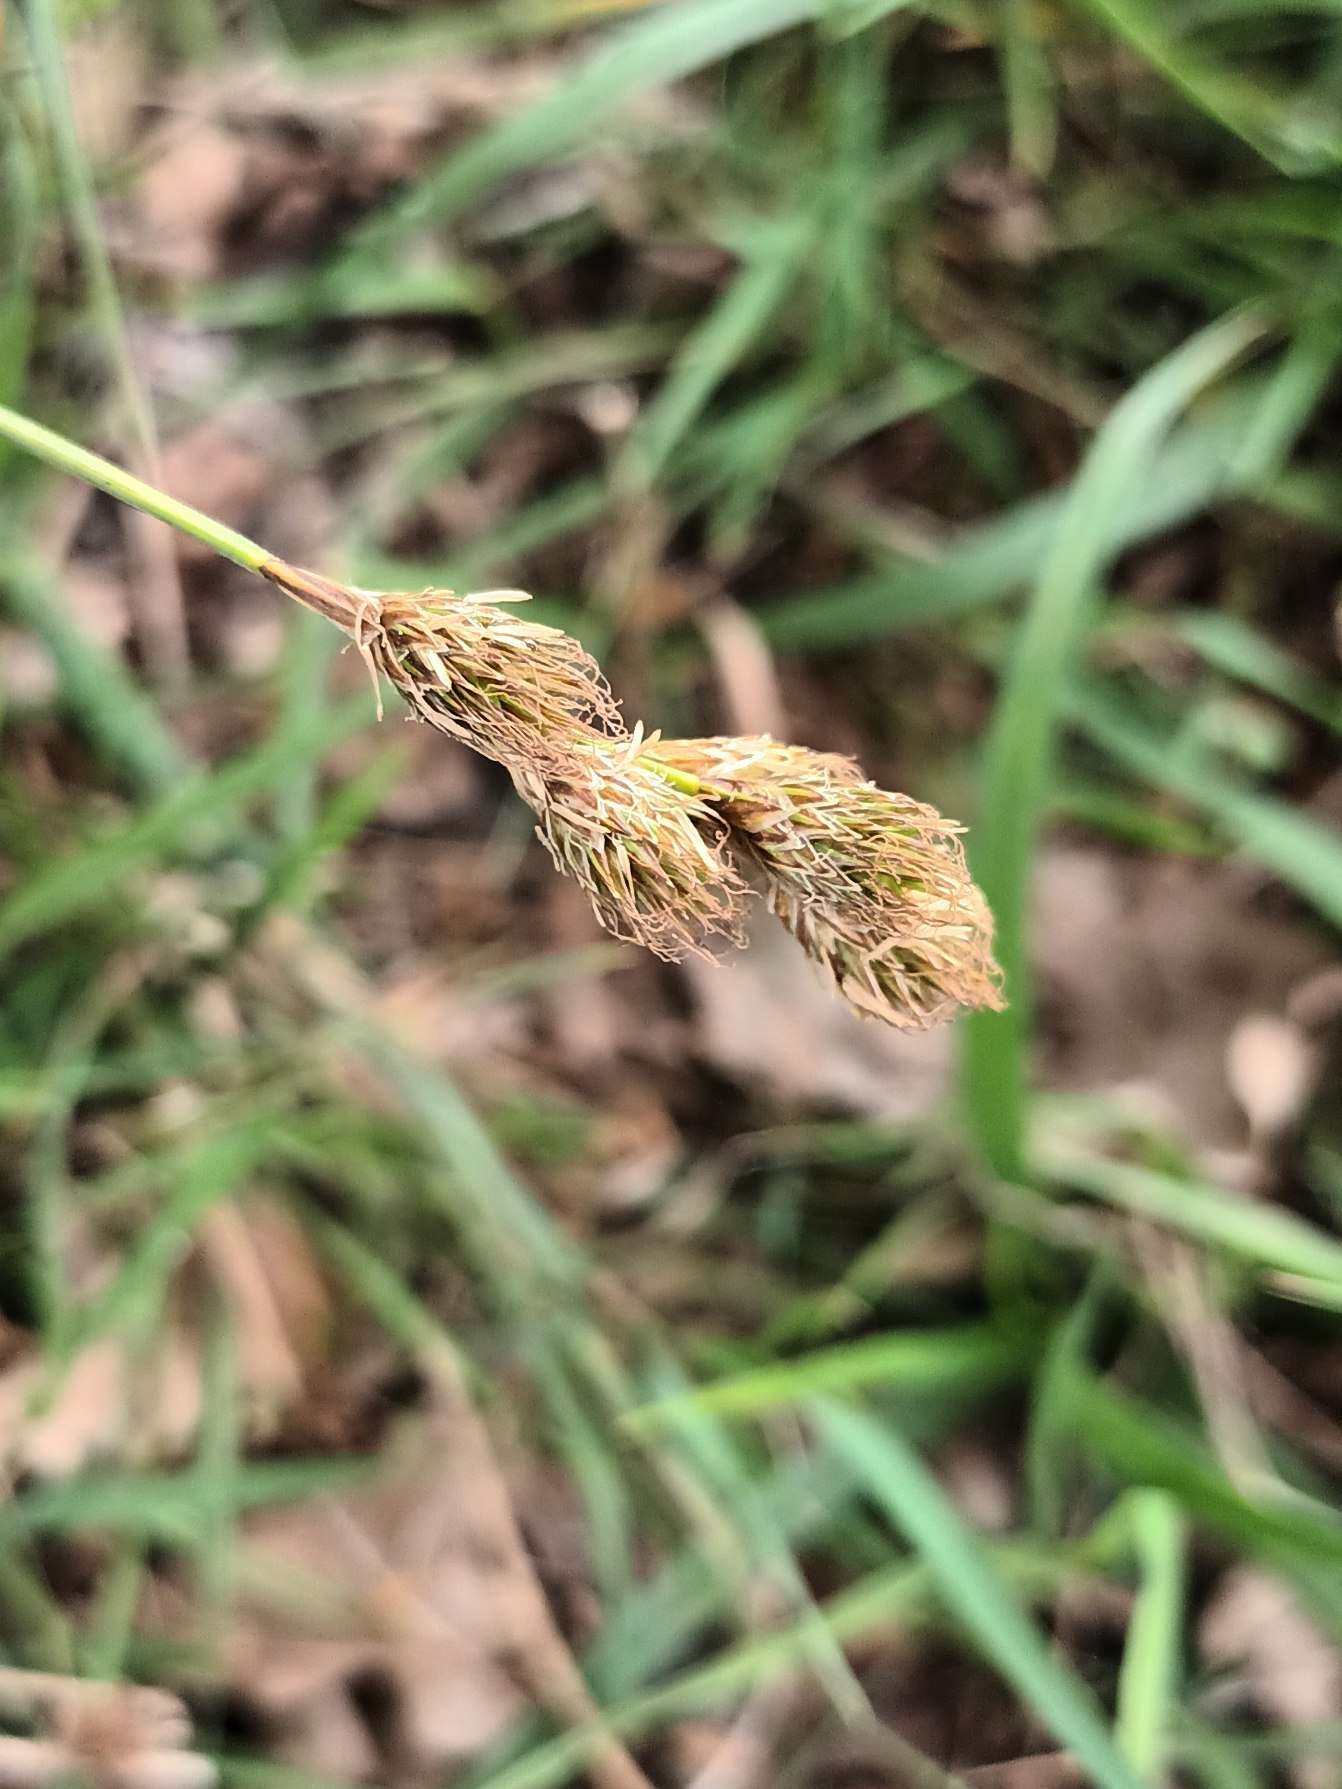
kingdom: Plantae
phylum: Tracheophyta
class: Liliopsida
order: Poales
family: Cyperaceae
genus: Carex
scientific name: Carex leporina
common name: Hare-star
